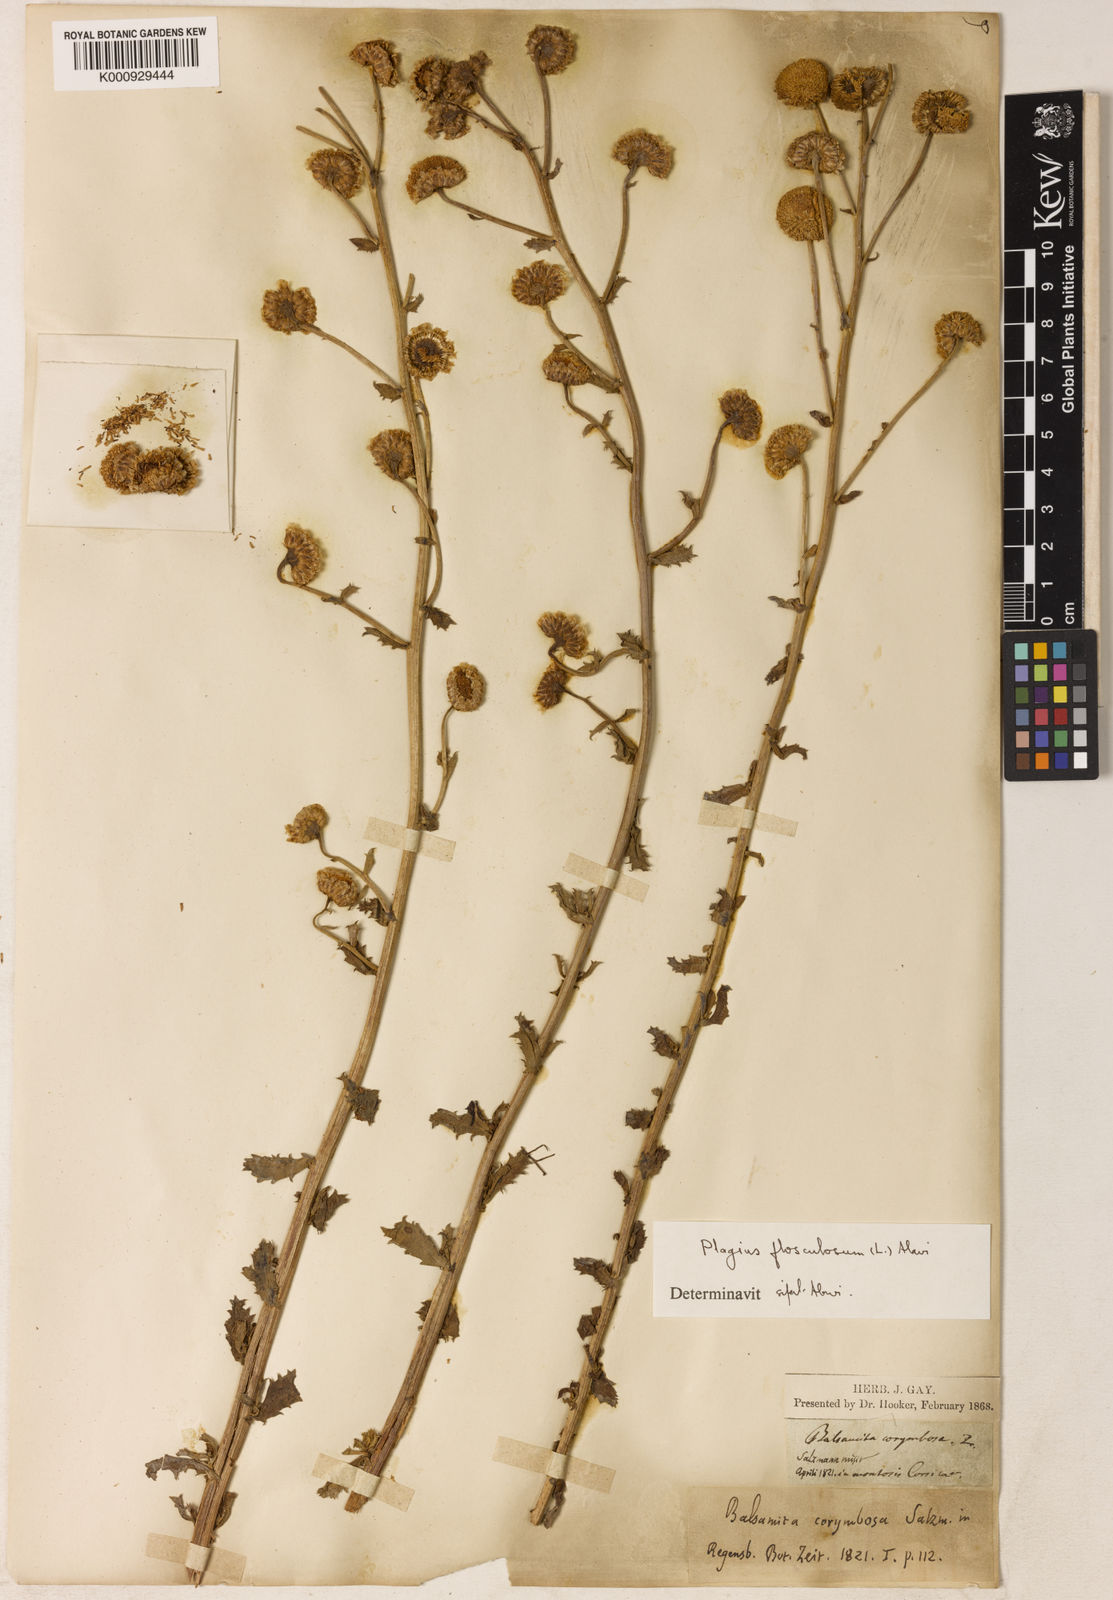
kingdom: Plantae
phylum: Tracheophyta
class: Magnoliopsida
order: Asterales
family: Asteraceae
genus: Plagius
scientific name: Plagius flosculosus
